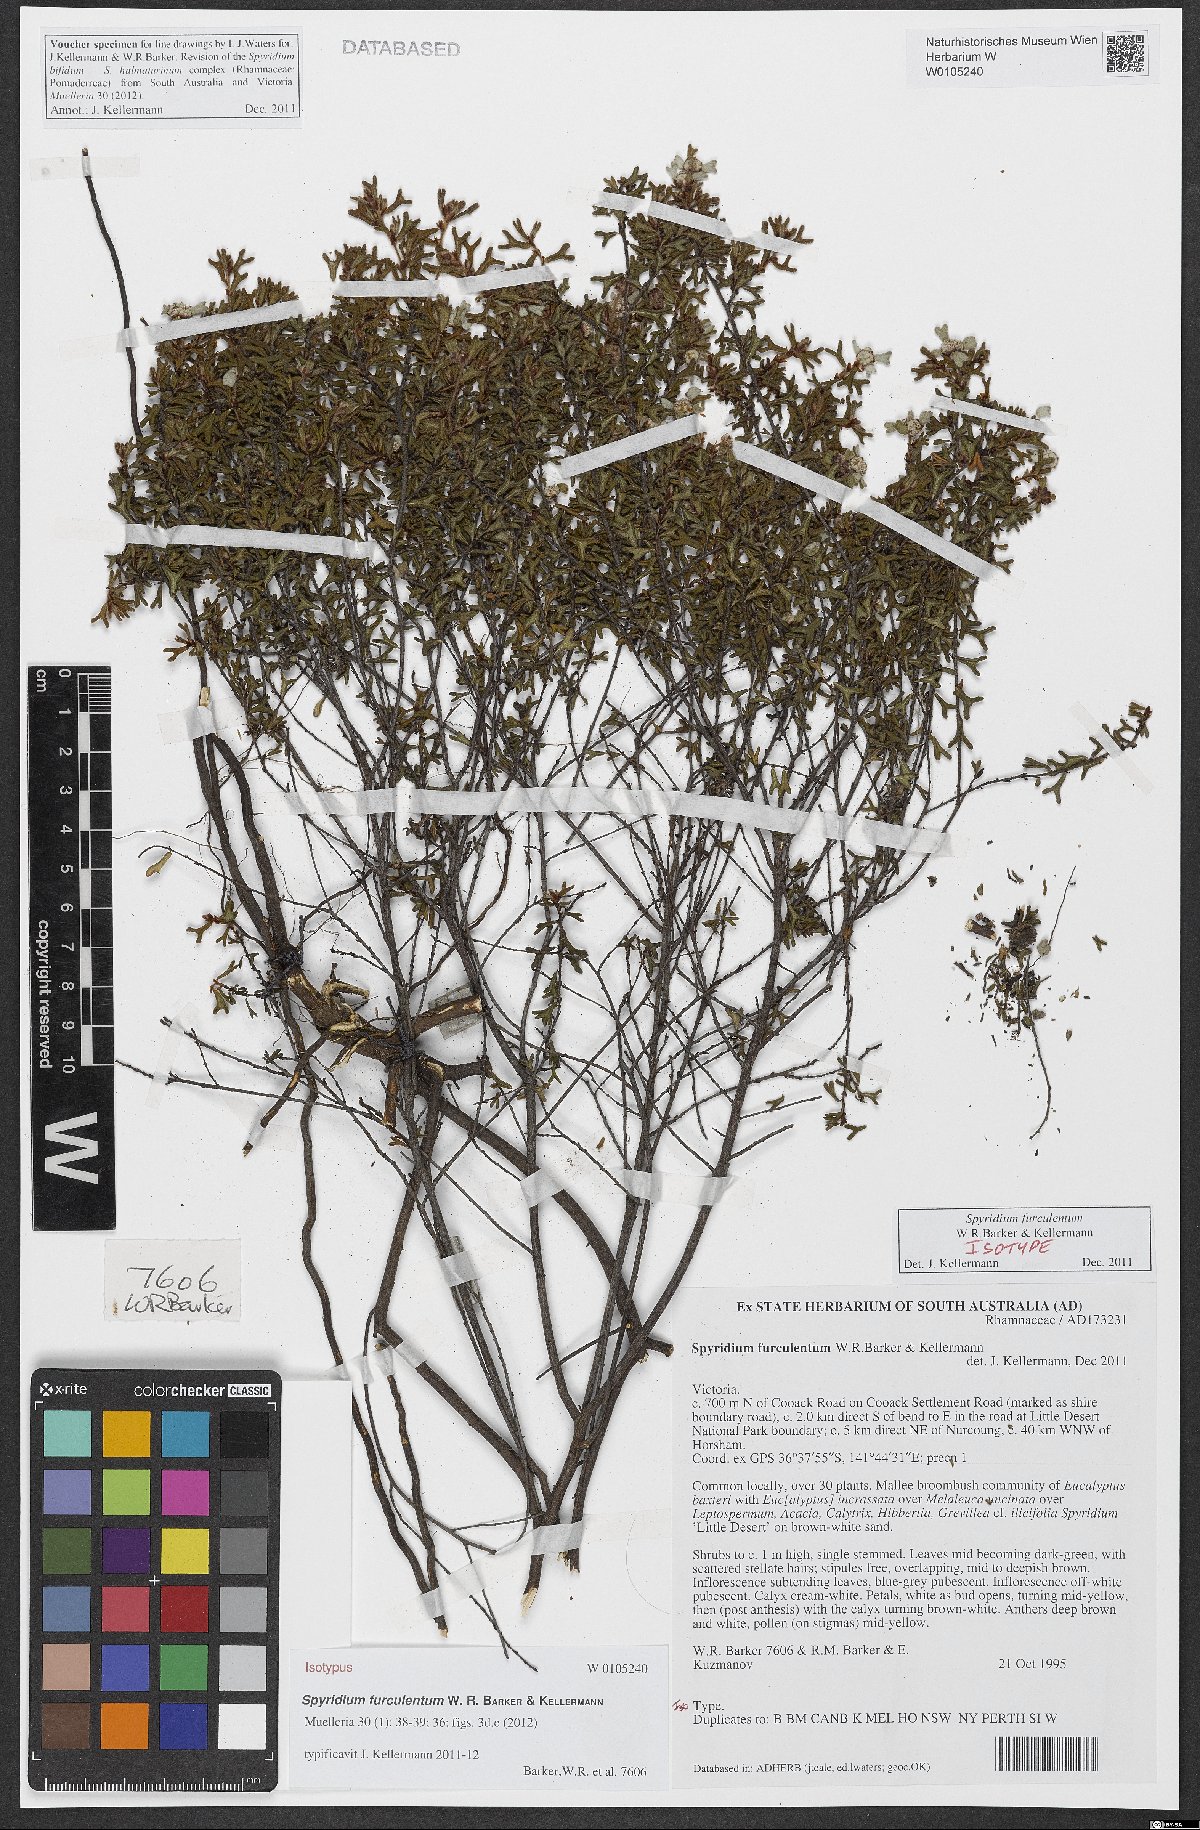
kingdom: Plantae
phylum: Tracheophyta
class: Magnoliopsida
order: Rosales
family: Rhamnaceae
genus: Spyridium
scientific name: Spyridium furculentum
